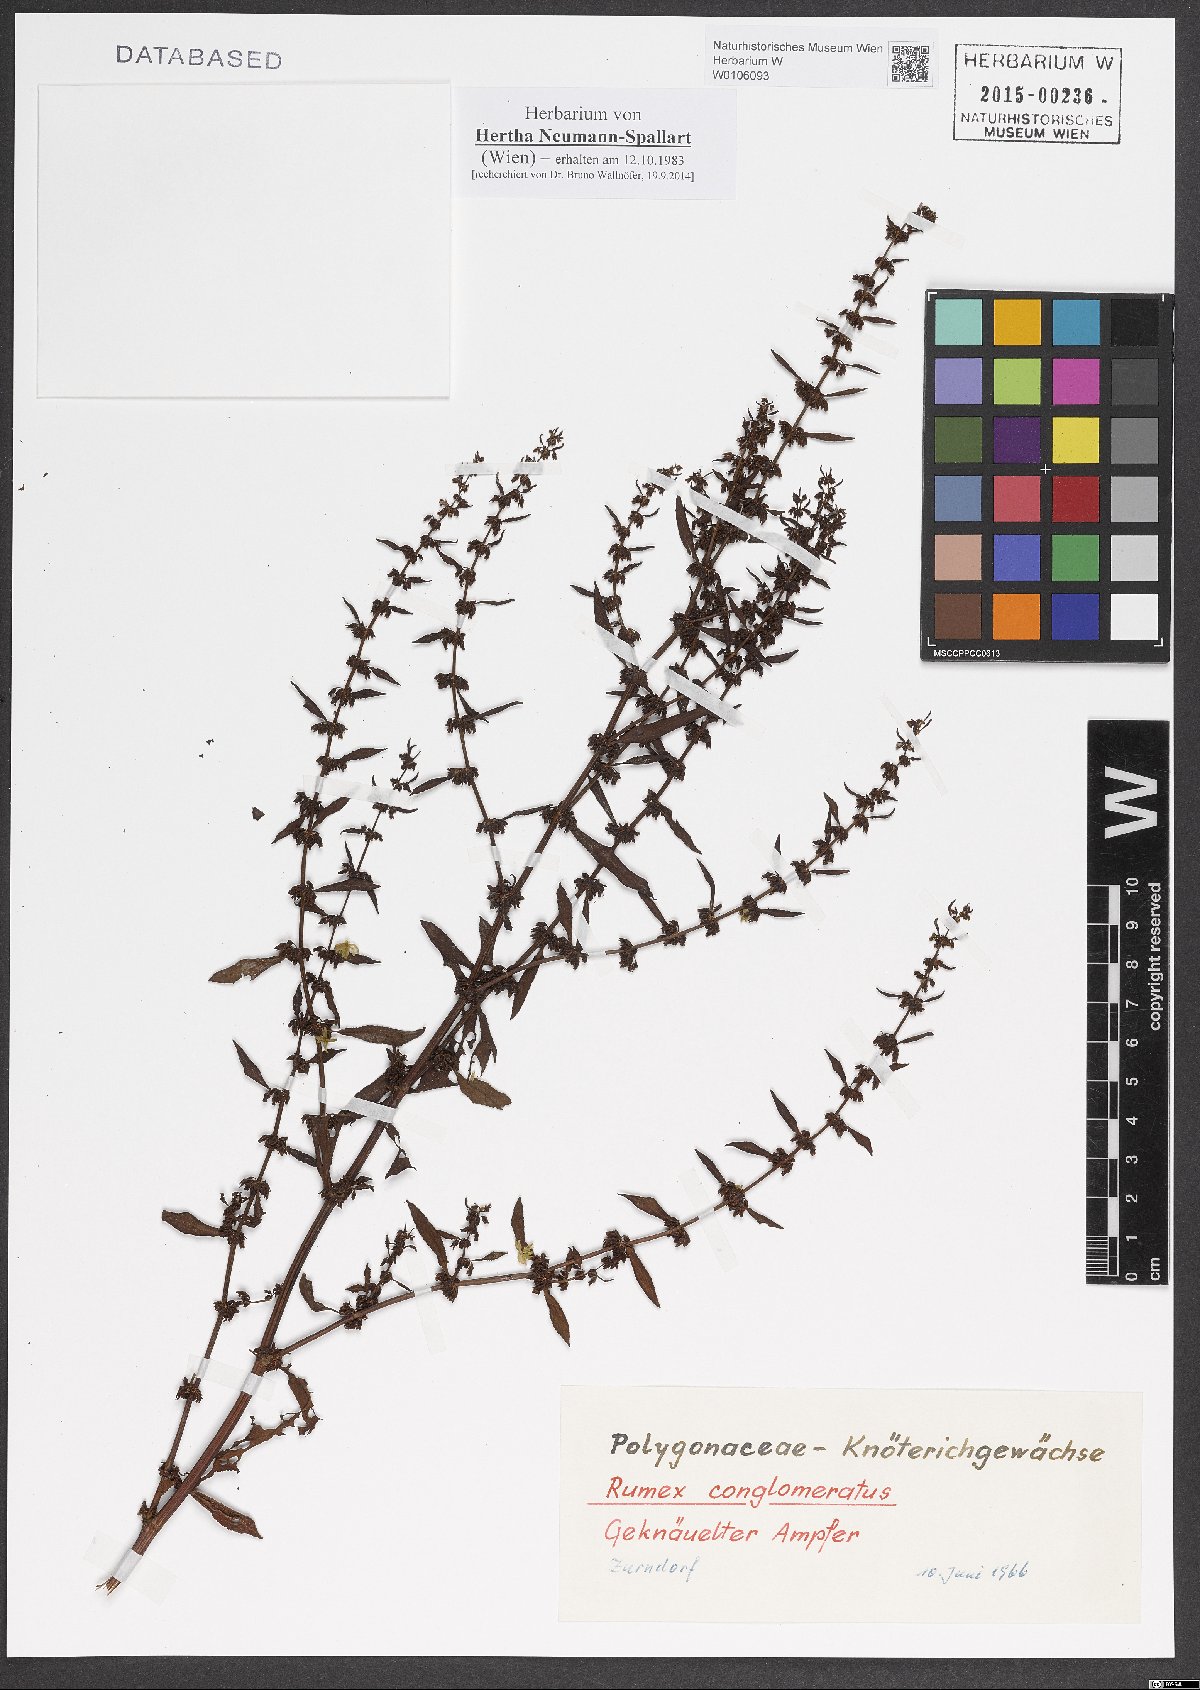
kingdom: Plantae
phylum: Tracheophyta
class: Magnoliopsida
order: Caryophyllales
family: Polygonaceae
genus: Rumex
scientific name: Rumex conglomeratus
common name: Clustered dock
